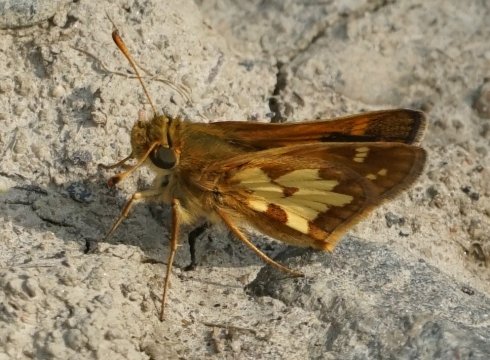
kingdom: Animalia
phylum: Arthropoda
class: Insecta
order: Lepidoptera
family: Hesperiidae
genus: Polites
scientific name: Polites coras
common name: Peck's Skipper
